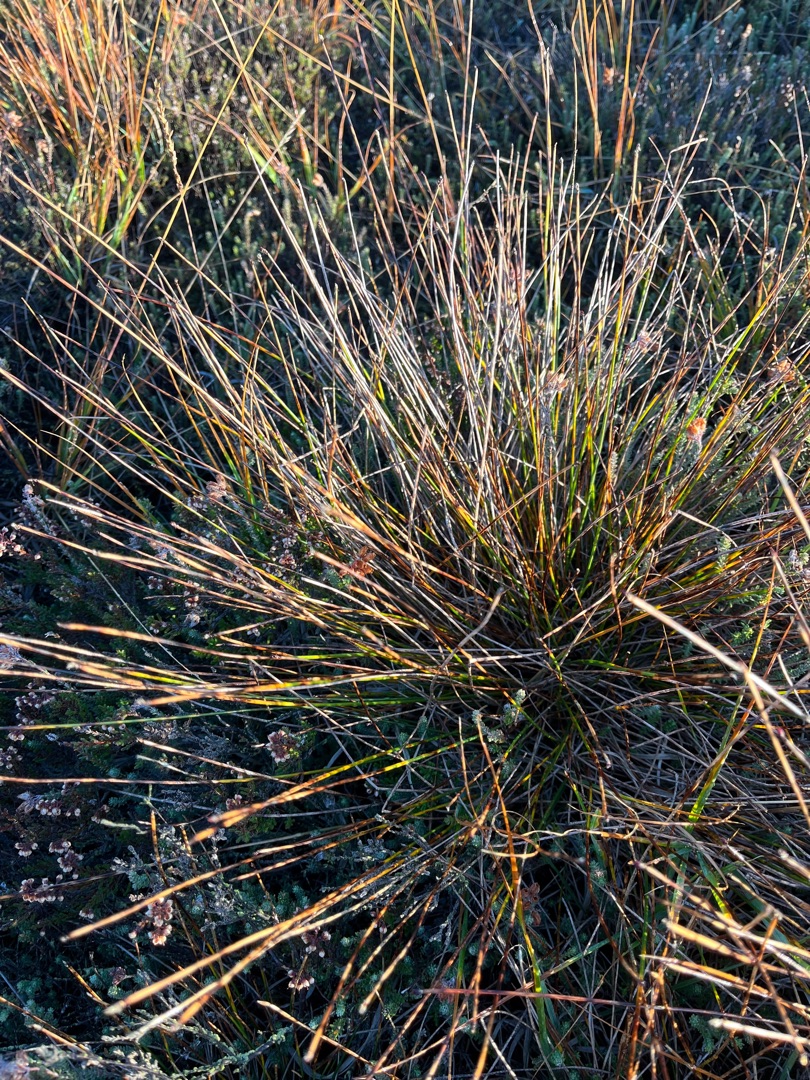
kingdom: Plantae
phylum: Tracheophyta
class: Liliopsida
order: Poales
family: Cyperaceae
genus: Trichophorum
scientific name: Trichophorum cespitosum
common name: Tuekogleaks
